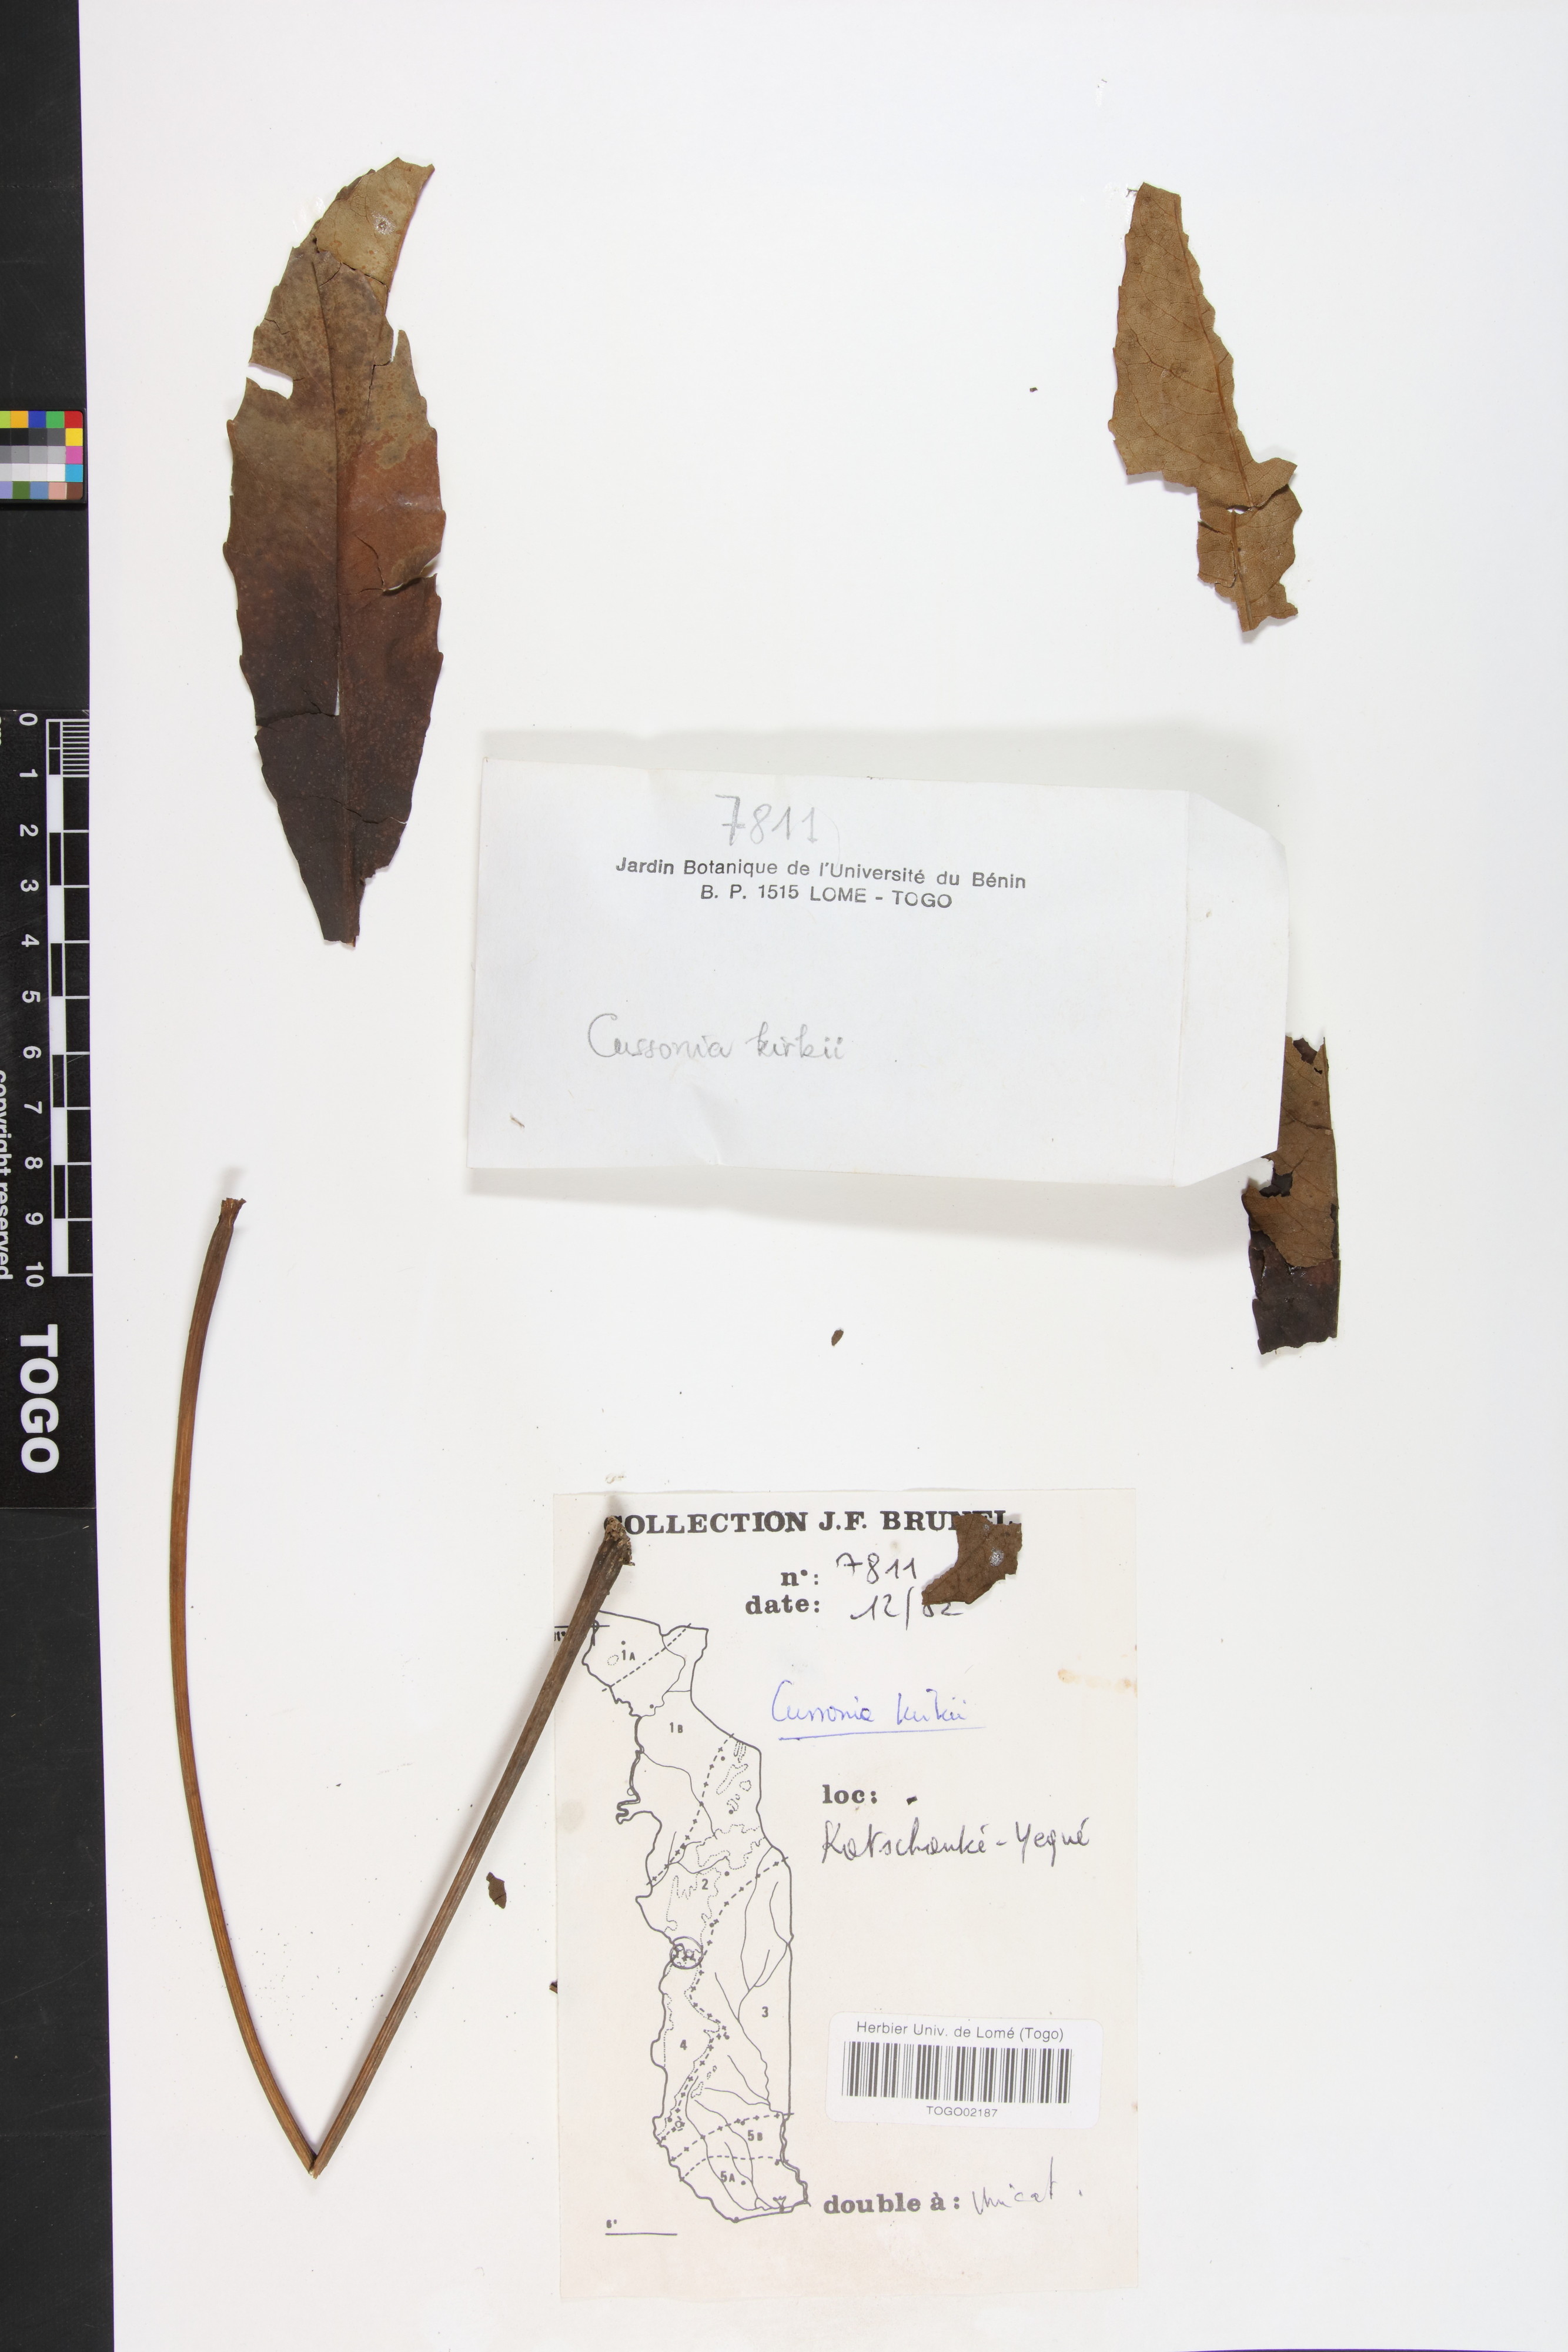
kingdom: Plantae
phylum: Tracheophyta
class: Magnoliopsida
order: Apiales
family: Araliaceae
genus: Cussonia
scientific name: Cussonia arborea
